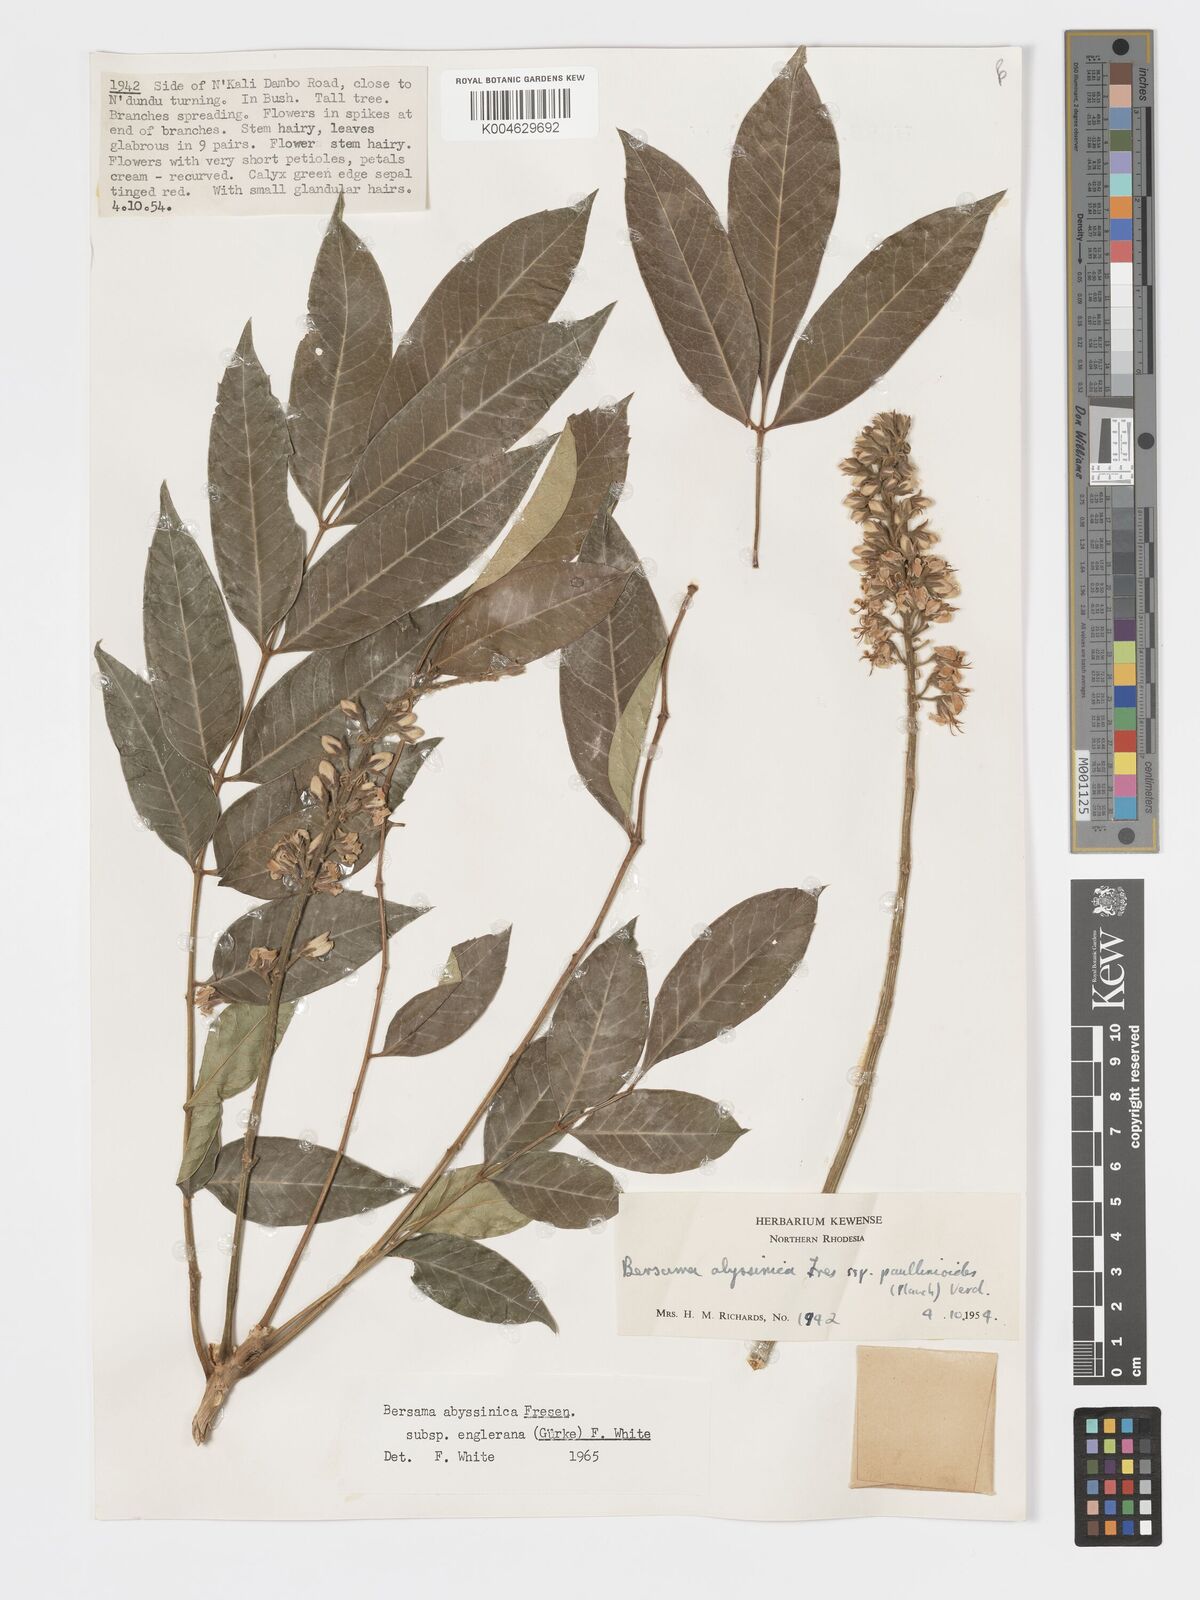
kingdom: Plantae
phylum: Tracheophyta
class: Magnoliopsida
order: Geraniales
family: Melianthaceae
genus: Bersama
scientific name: Bersama abyssinica
